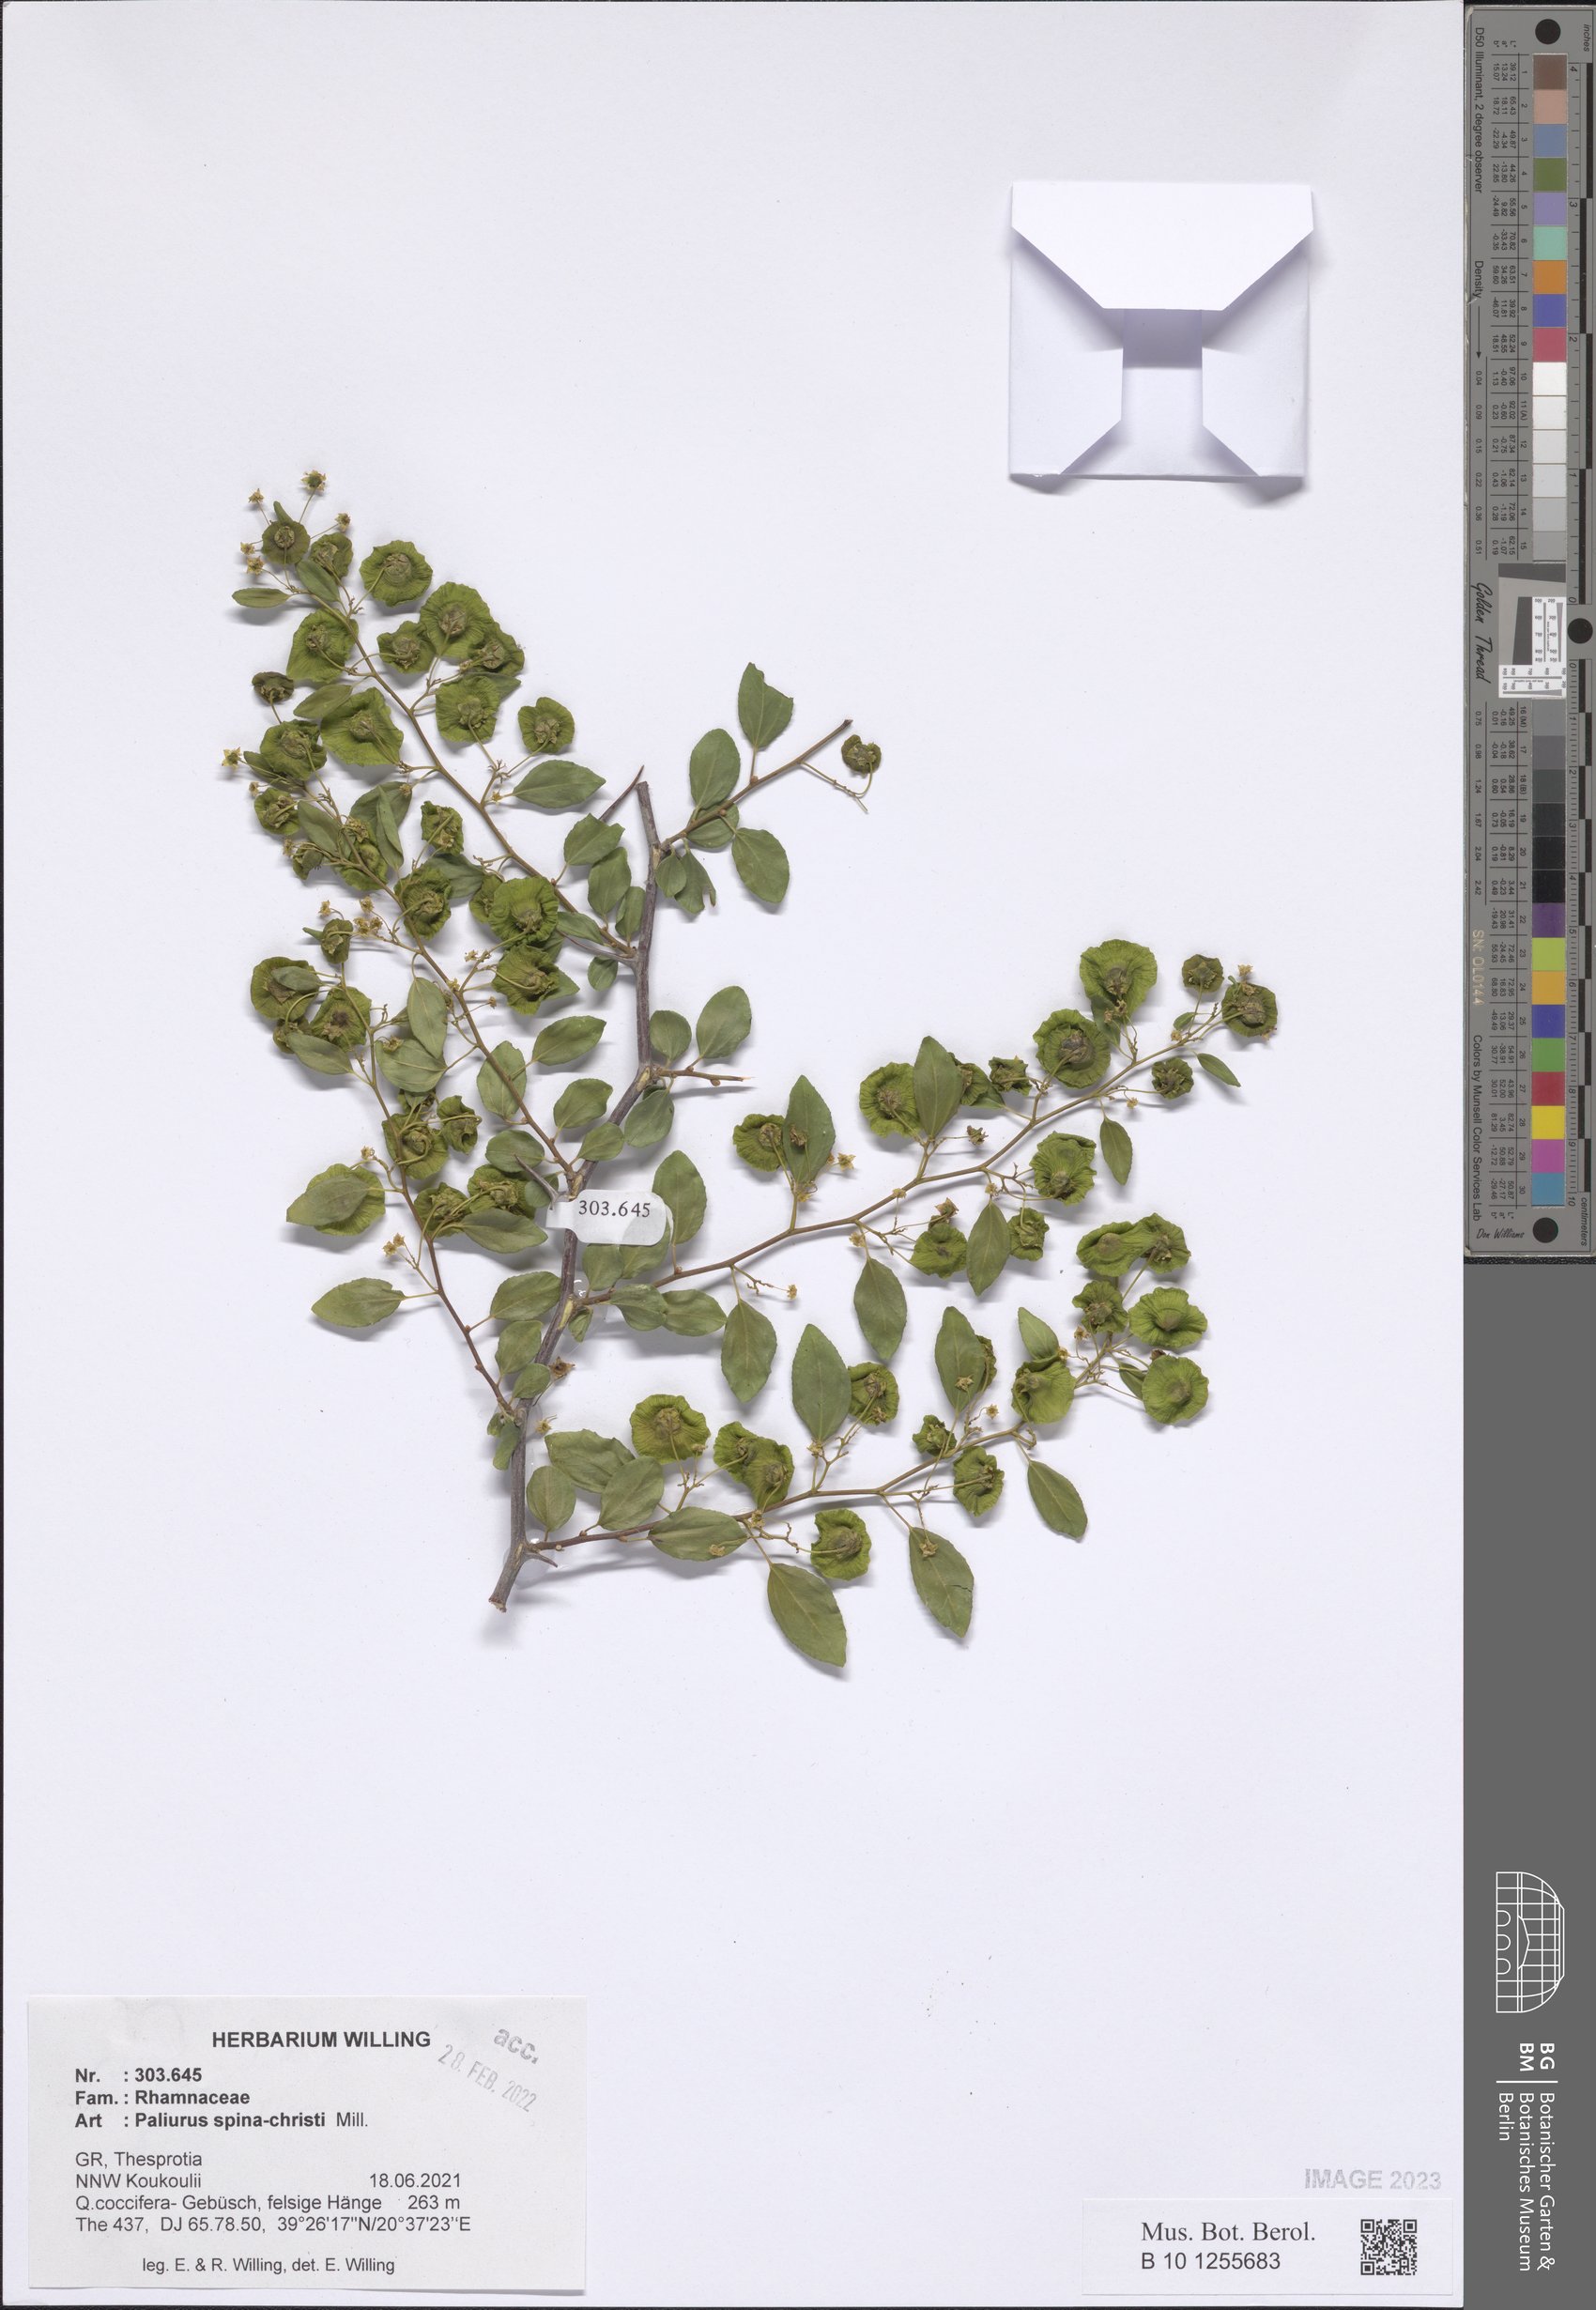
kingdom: Plantae
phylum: Tracheophyta
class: Magnoliopsida
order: Rosales
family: Rhamnaceae
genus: Paliurus
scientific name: Paliurus spina-christi
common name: Jeruselem thorn
